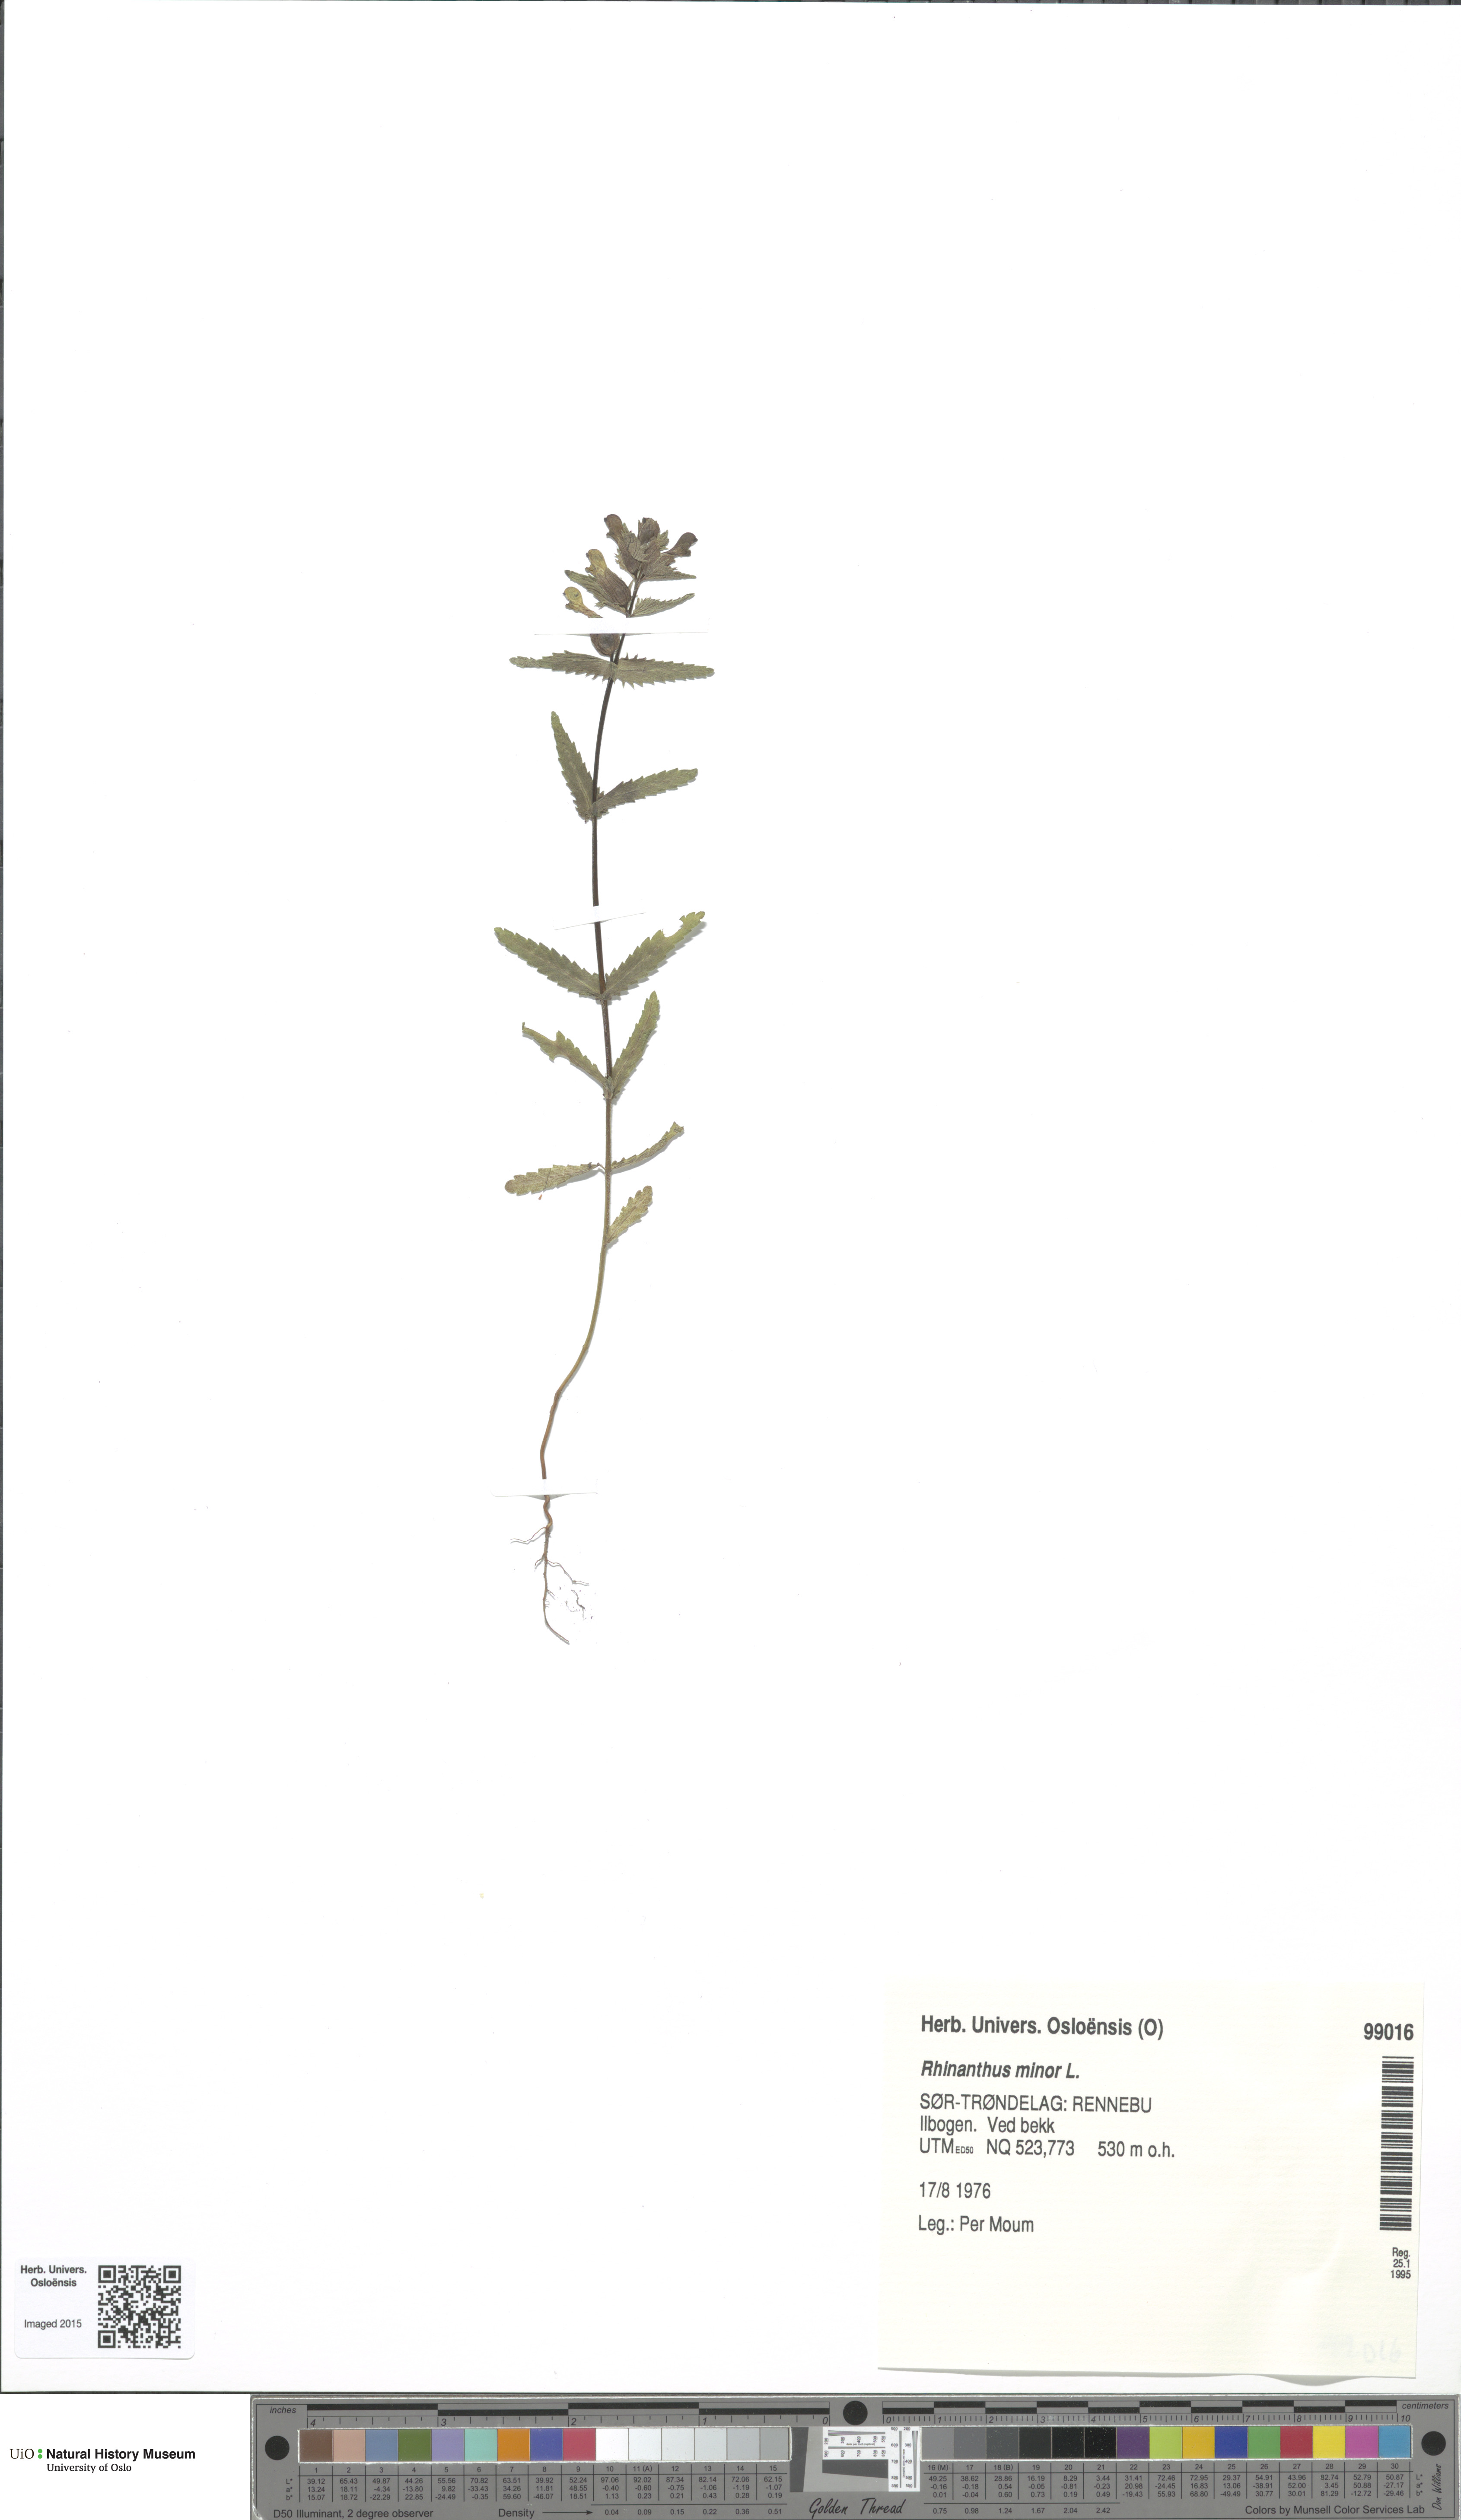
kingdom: Plantae
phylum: Tracheophyta
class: Magnoliopsida
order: Lamiales
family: Orobanchaceae
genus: Rhinanthus
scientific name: Rhinanthus minor
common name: Yellow-rattle
